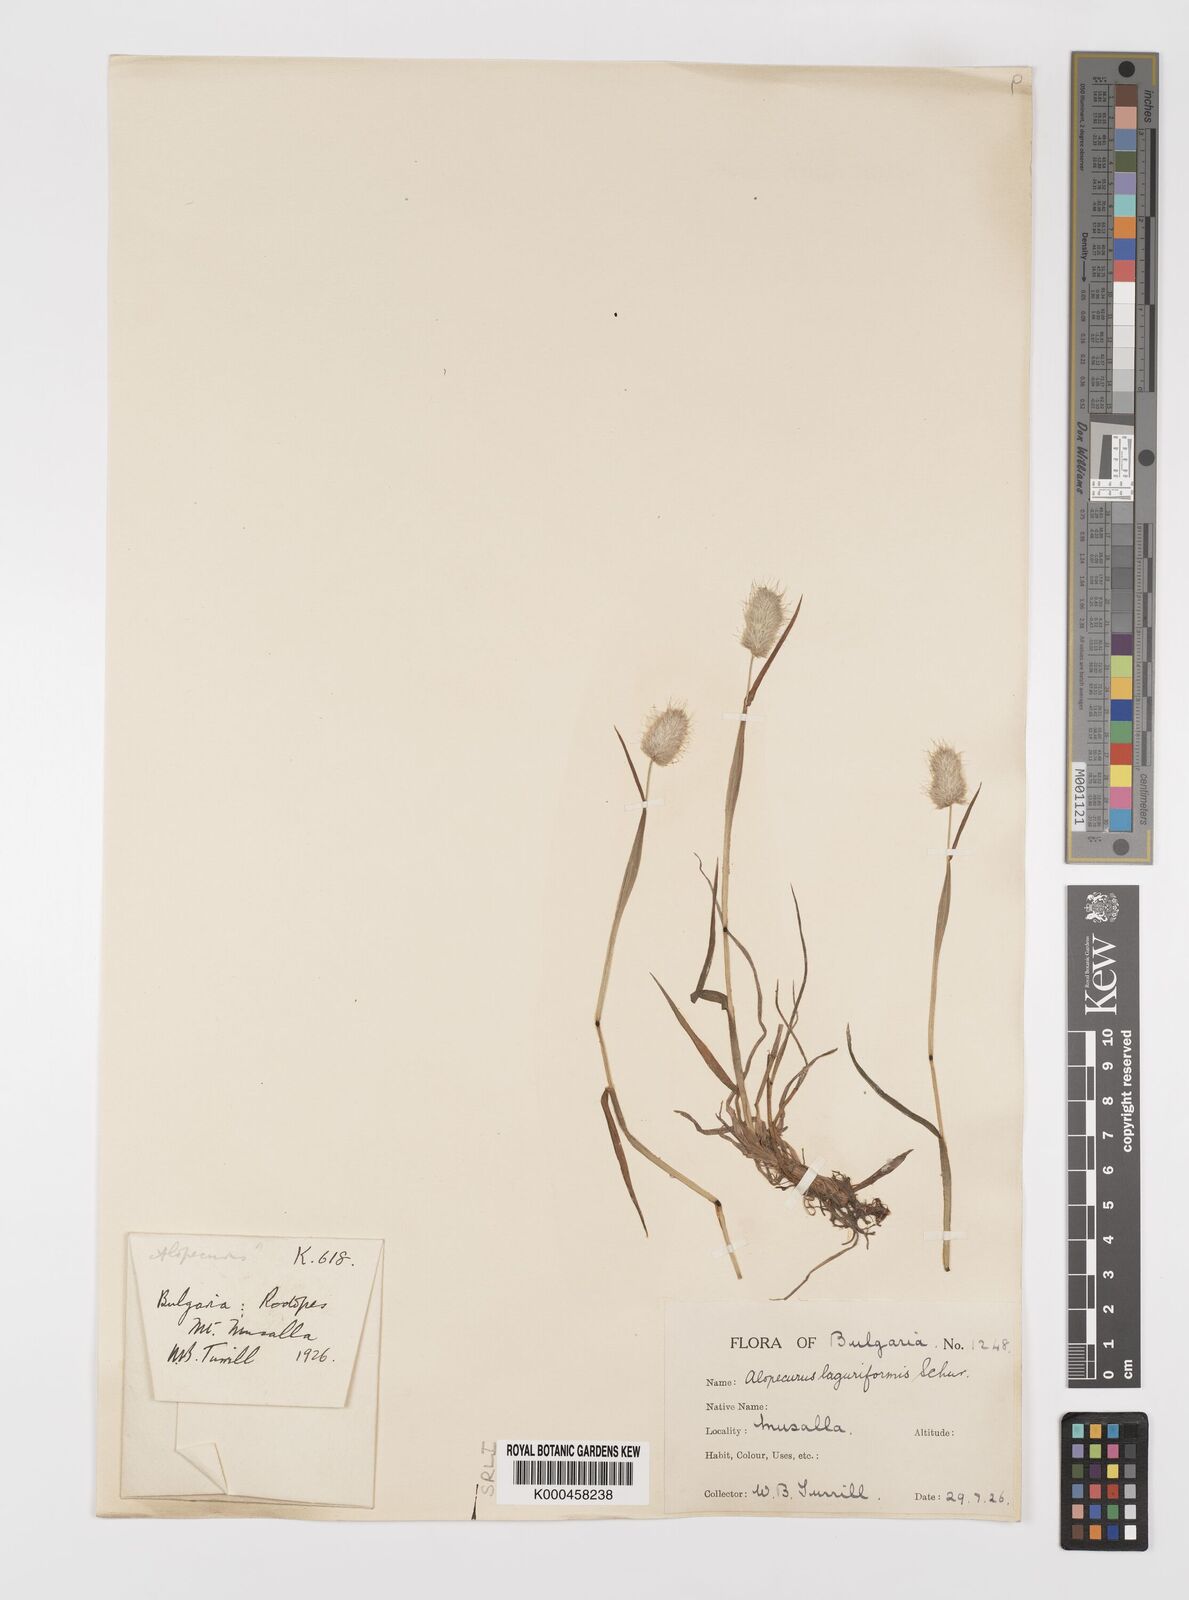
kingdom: Plantae
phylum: Tracheophyta
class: Liliopsida
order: Poales
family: Poaceae
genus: Alopecurus
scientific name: Alopecurus himalaicus
